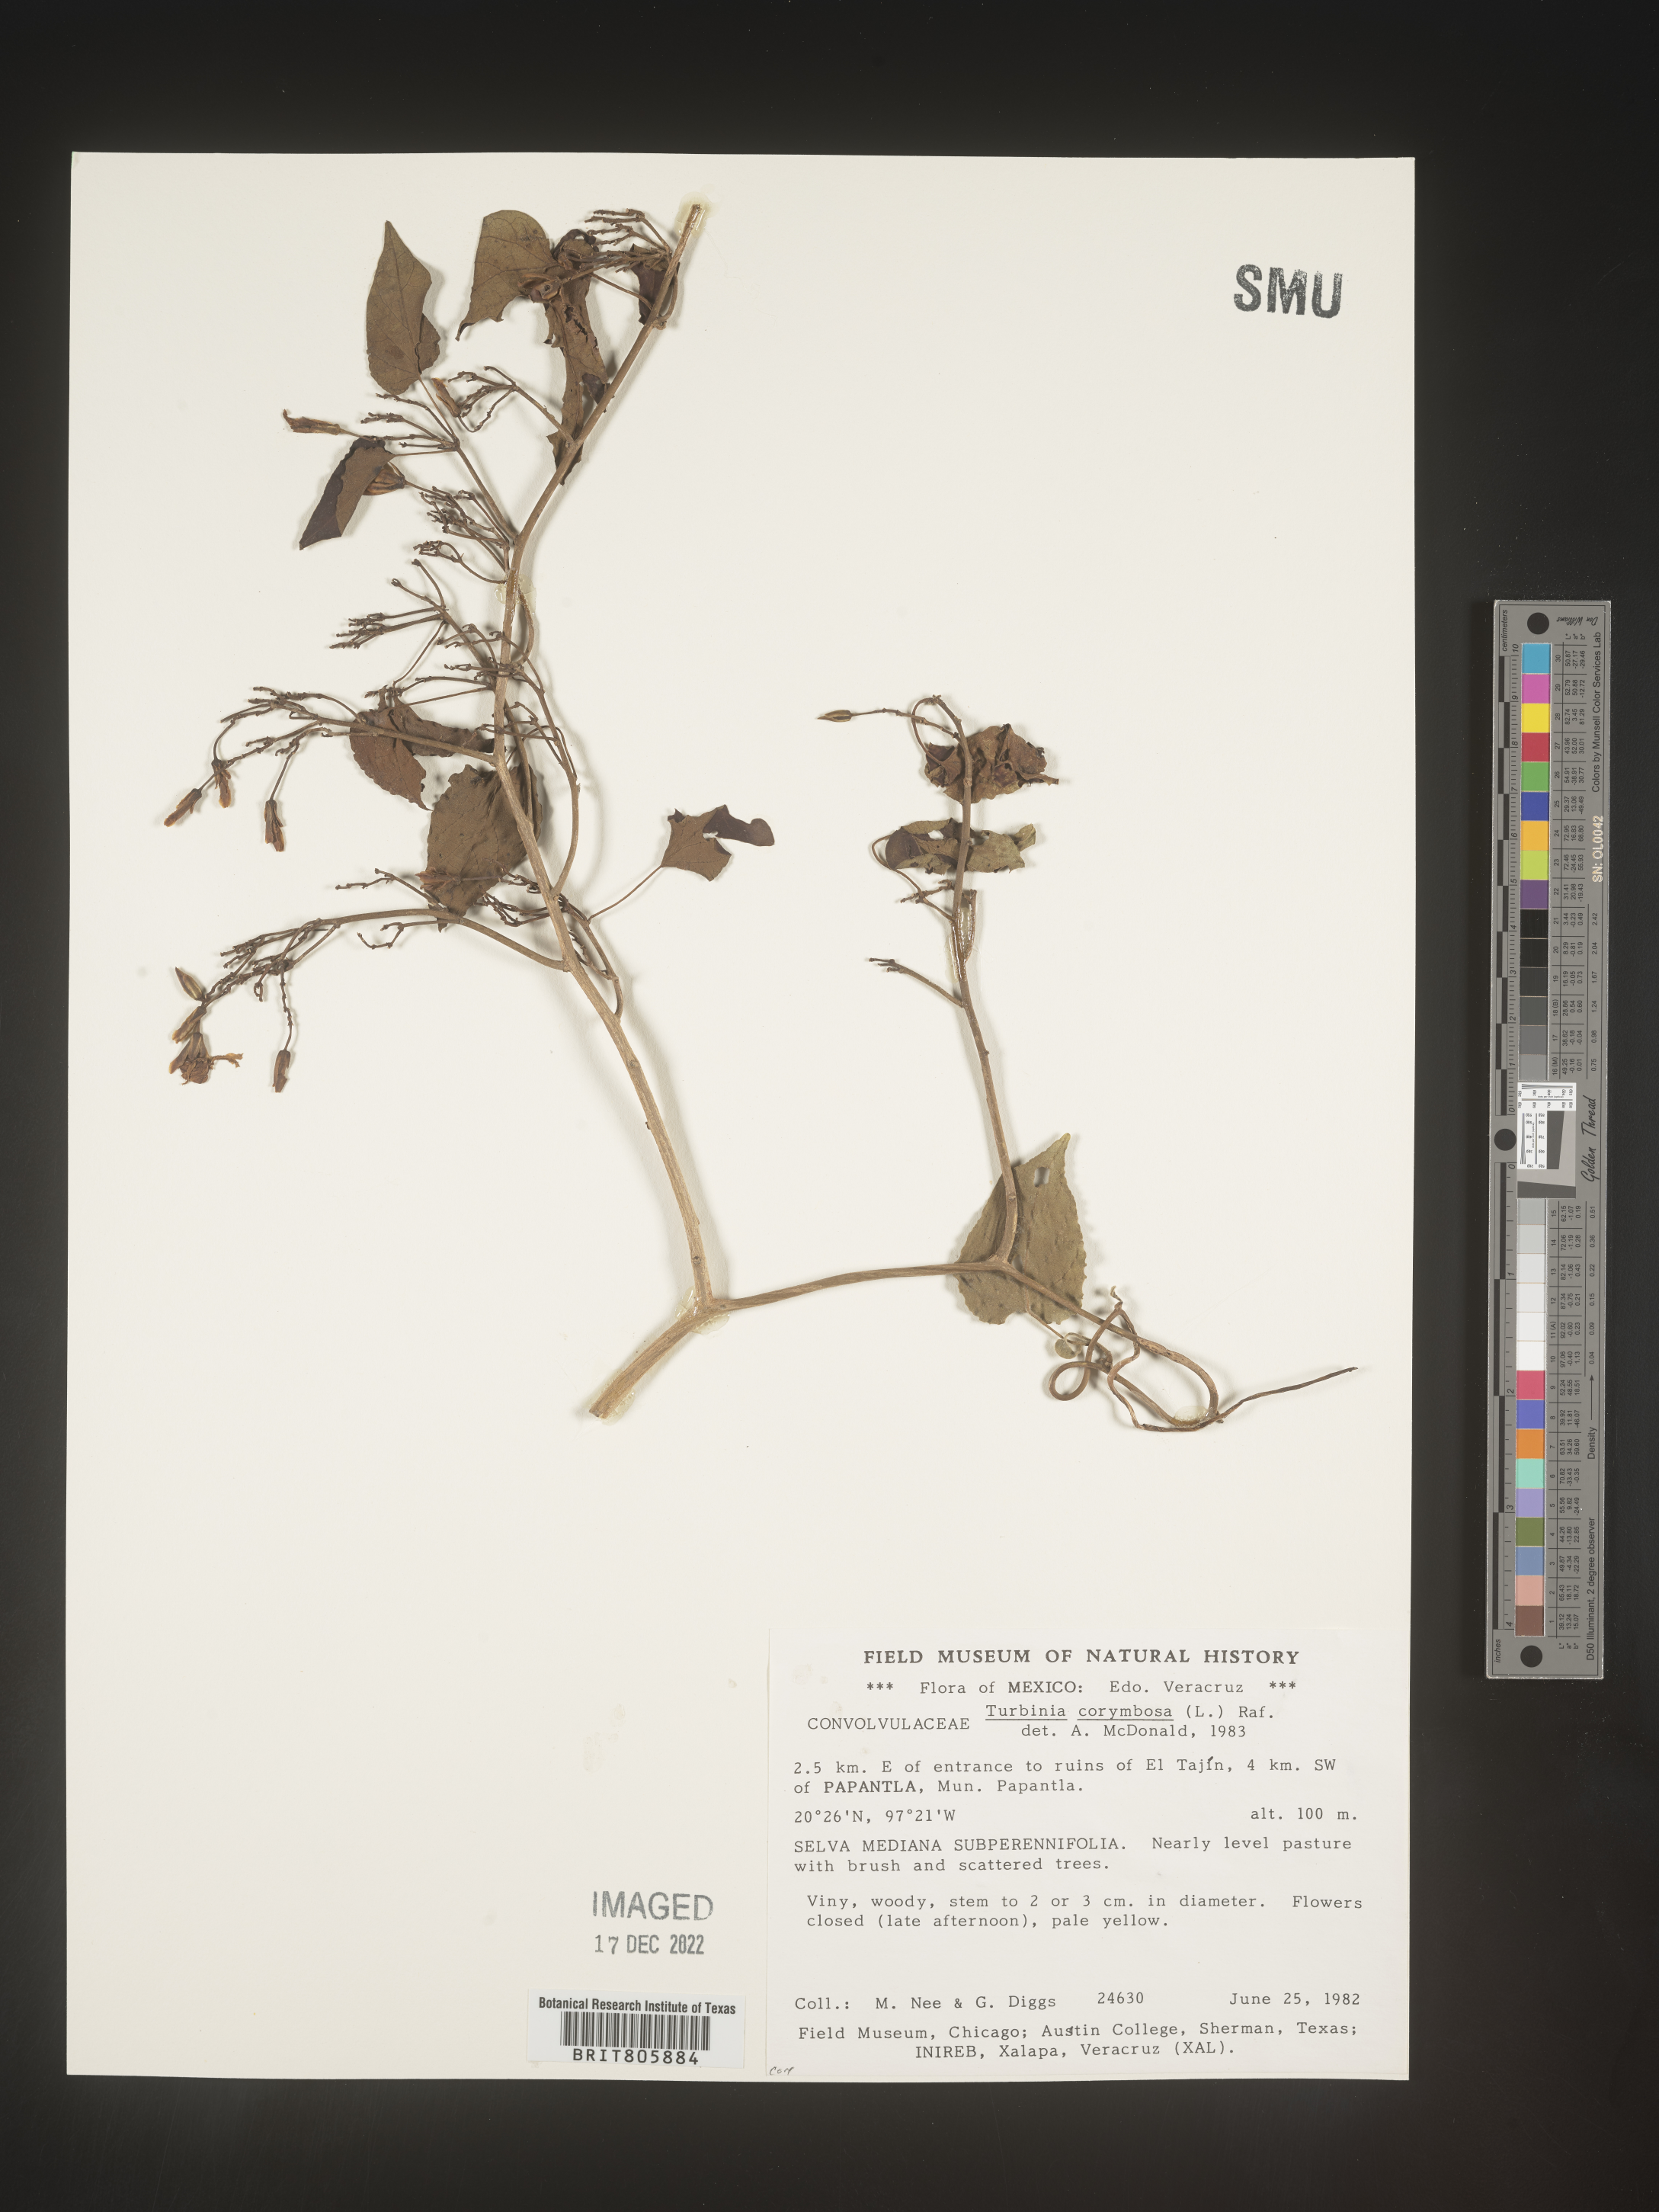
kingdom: Animalia
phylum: Mollusca
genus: Turbina
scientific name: Turbina
